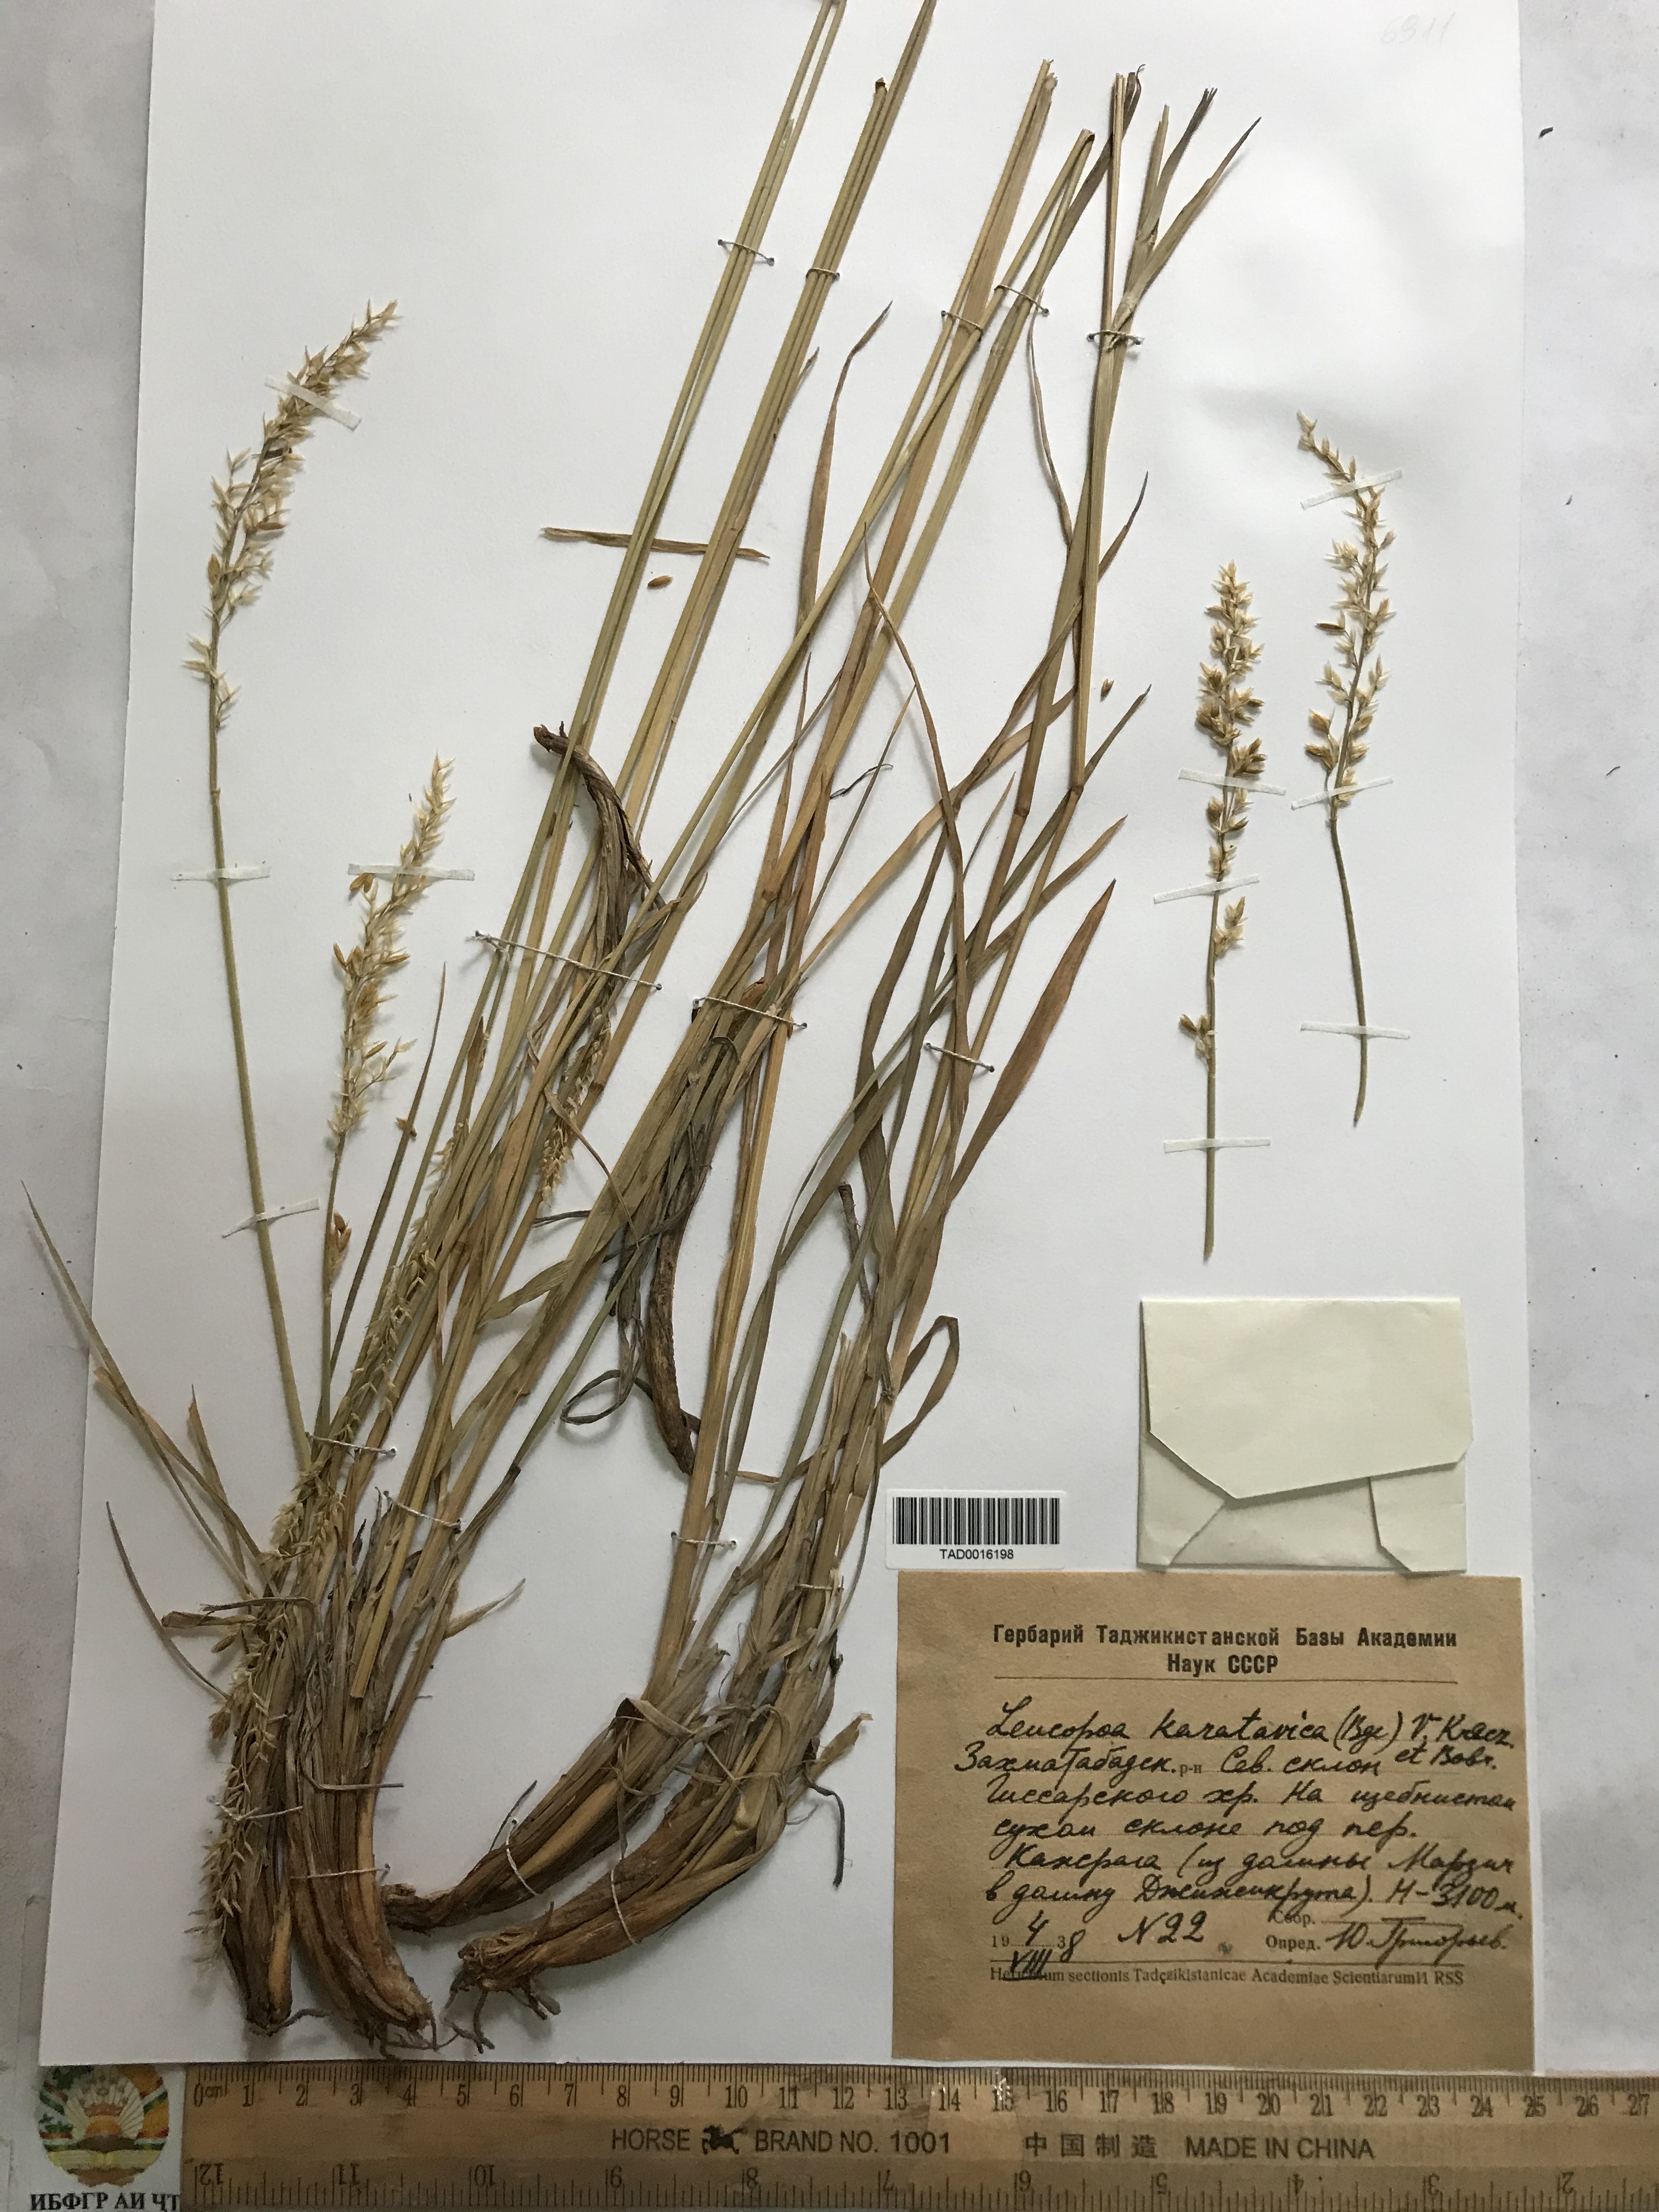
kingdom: Plantae
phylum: Tracheophyta
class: Liliopsida
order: Poales
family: Poaceae
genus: Festuca
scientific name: Festuca karatavica
